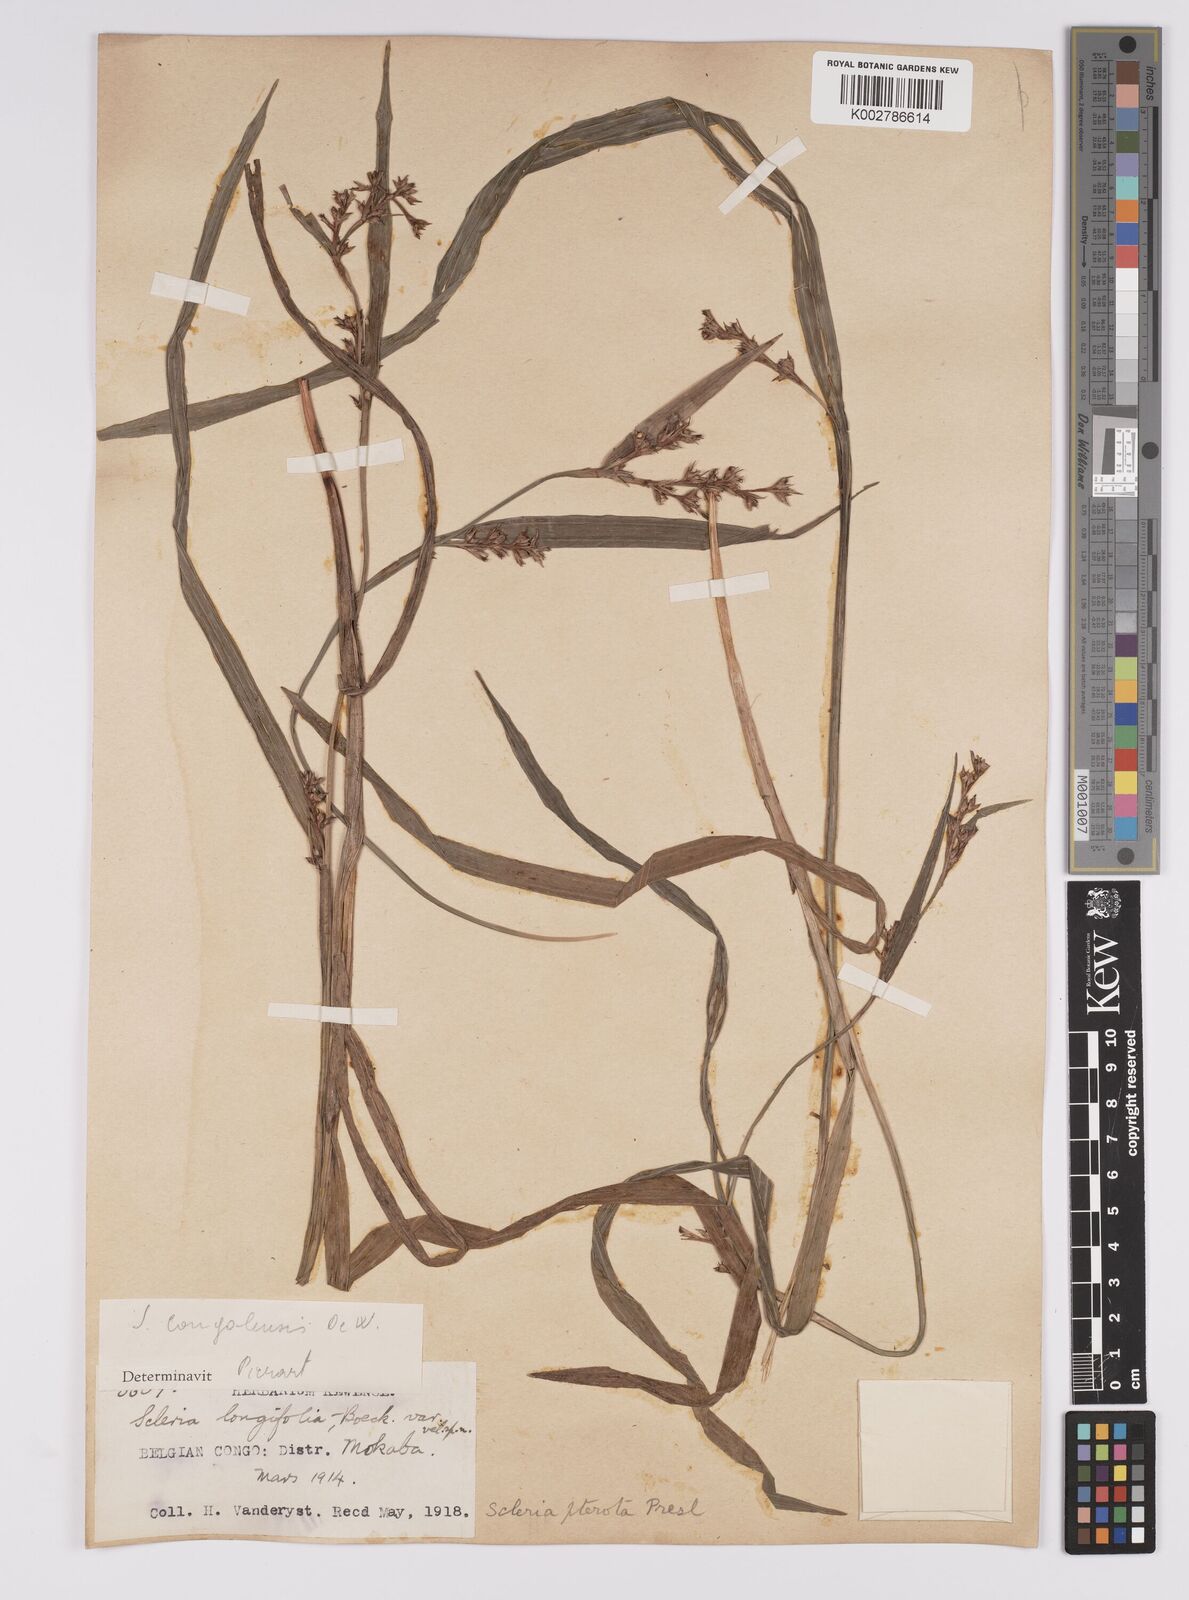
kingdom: Plantae
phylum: Tracheophyta
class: Liliopsida
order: Poales
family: Cyperaceae
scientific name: Cyperaceae
